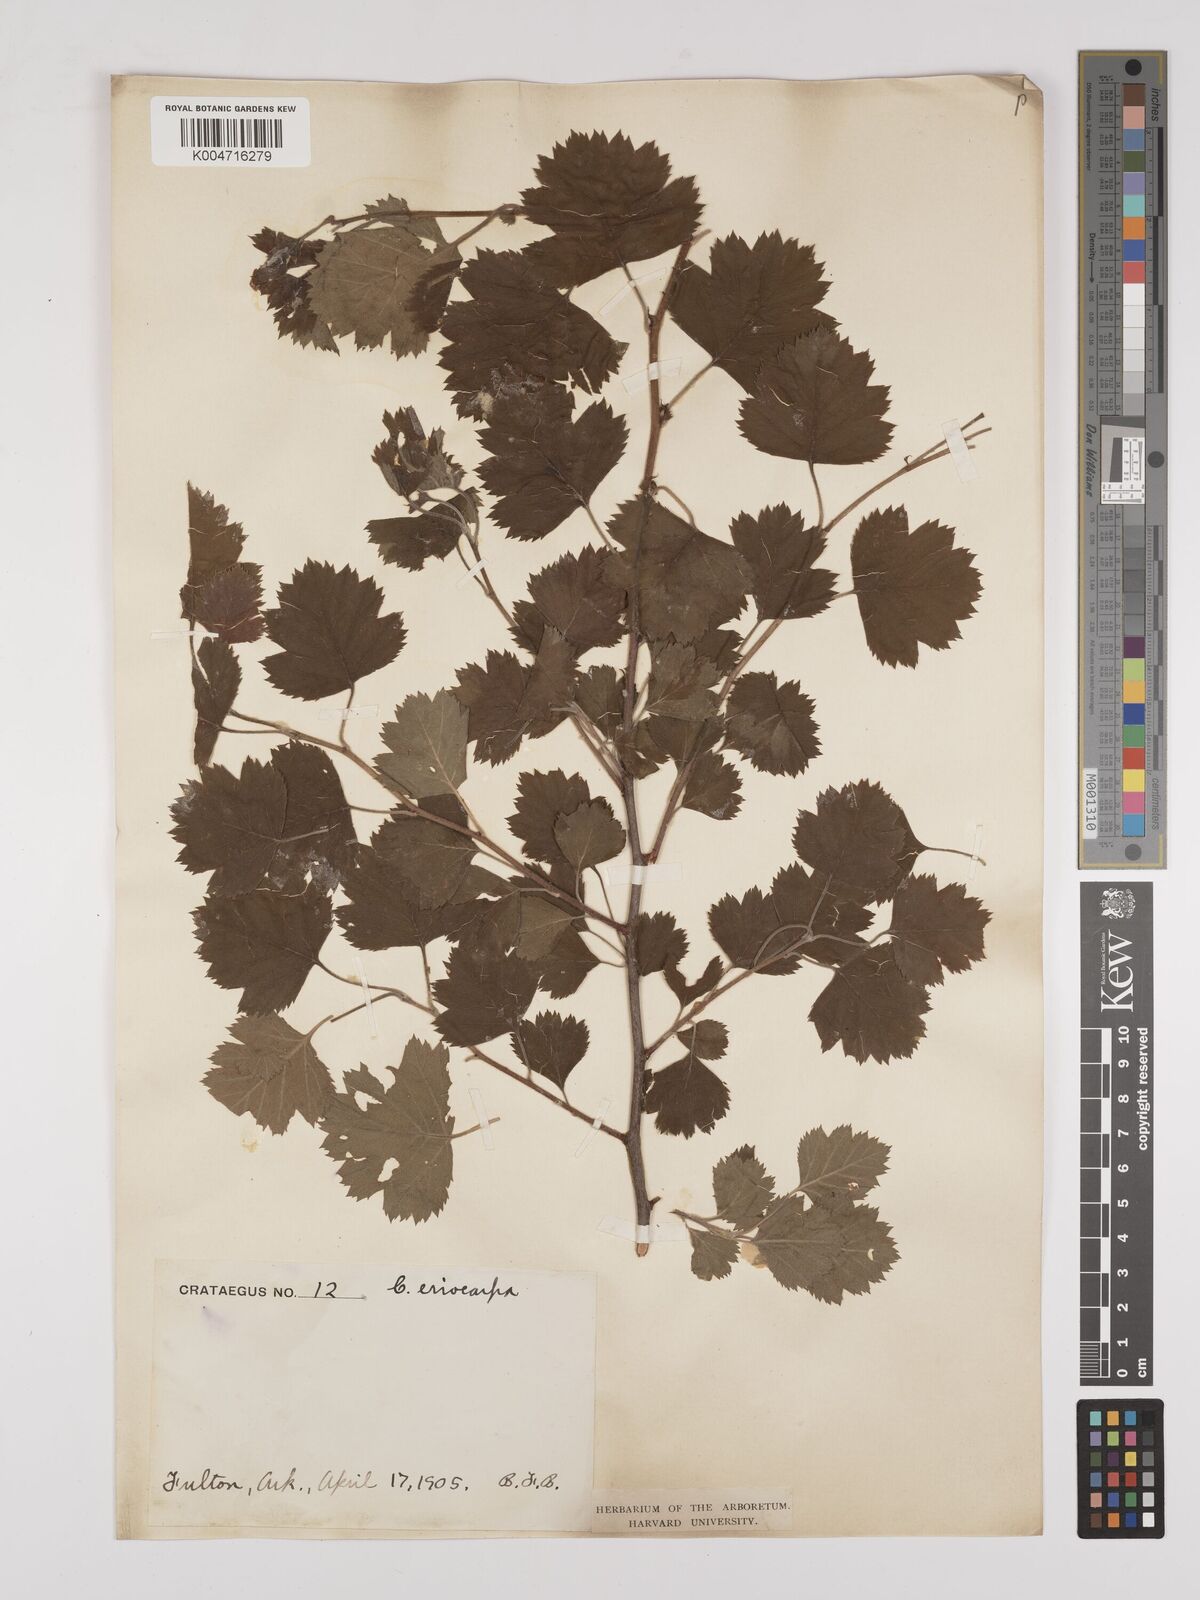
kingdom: Plantae
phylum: Tracheophyta
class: Magnoliopsida
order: Rosales
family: Rosaceae
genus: Crataegus
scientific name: Crataegus
